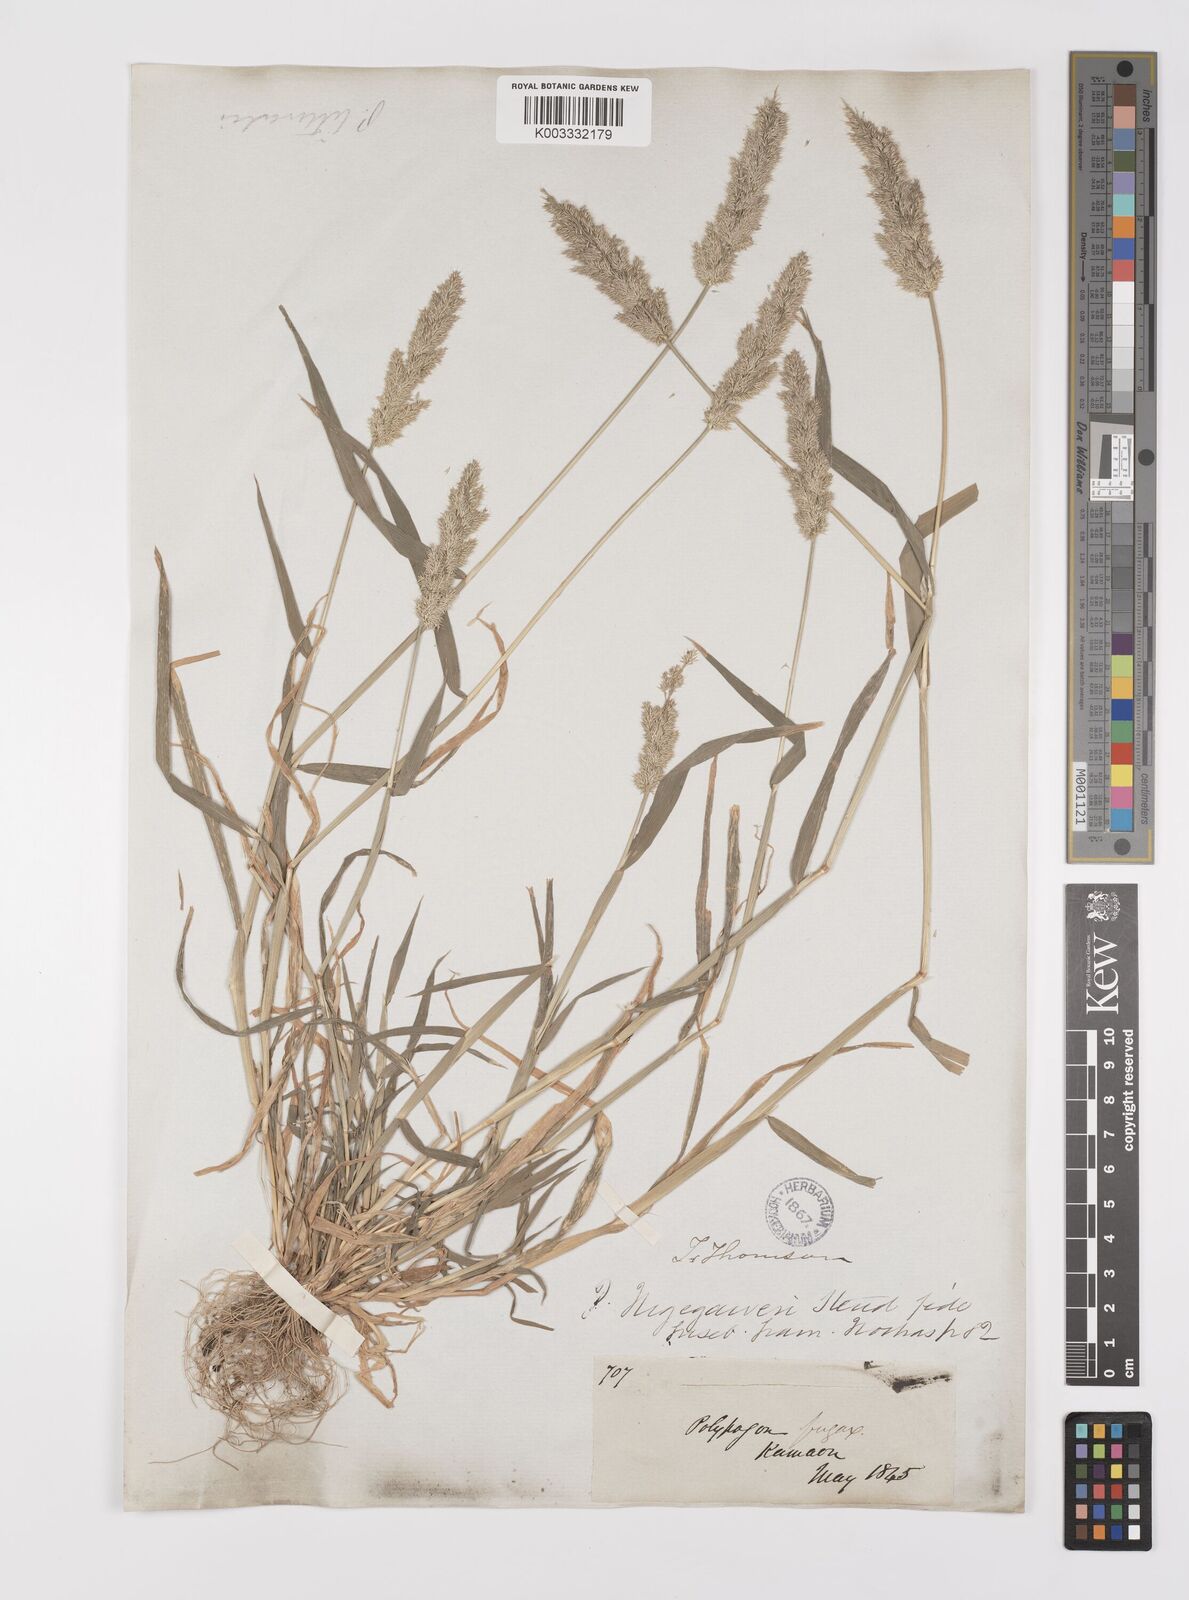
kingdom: Plantae
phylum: Tracheophyta
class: Liliopsida
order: Poales
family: Poaceae
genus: Polypogon
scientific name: Polypogon fugax
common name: Asia minor bluegrass
